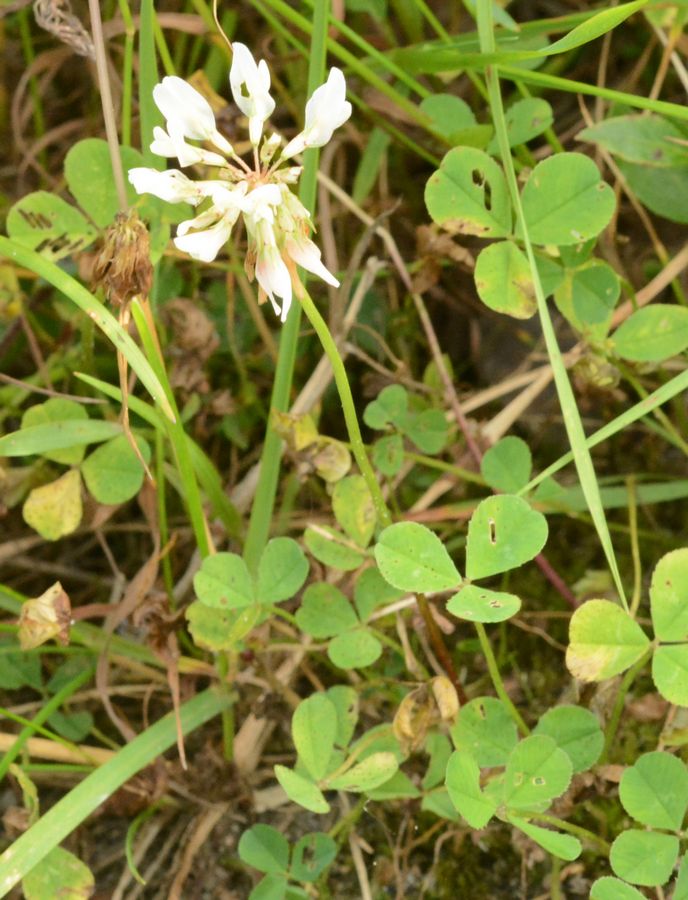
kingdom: Plantae
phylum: Tracheophyta
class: Magnoliopsida
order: Fabales
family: Fabaceae
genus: Trifolium
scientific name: Trifolium repens
